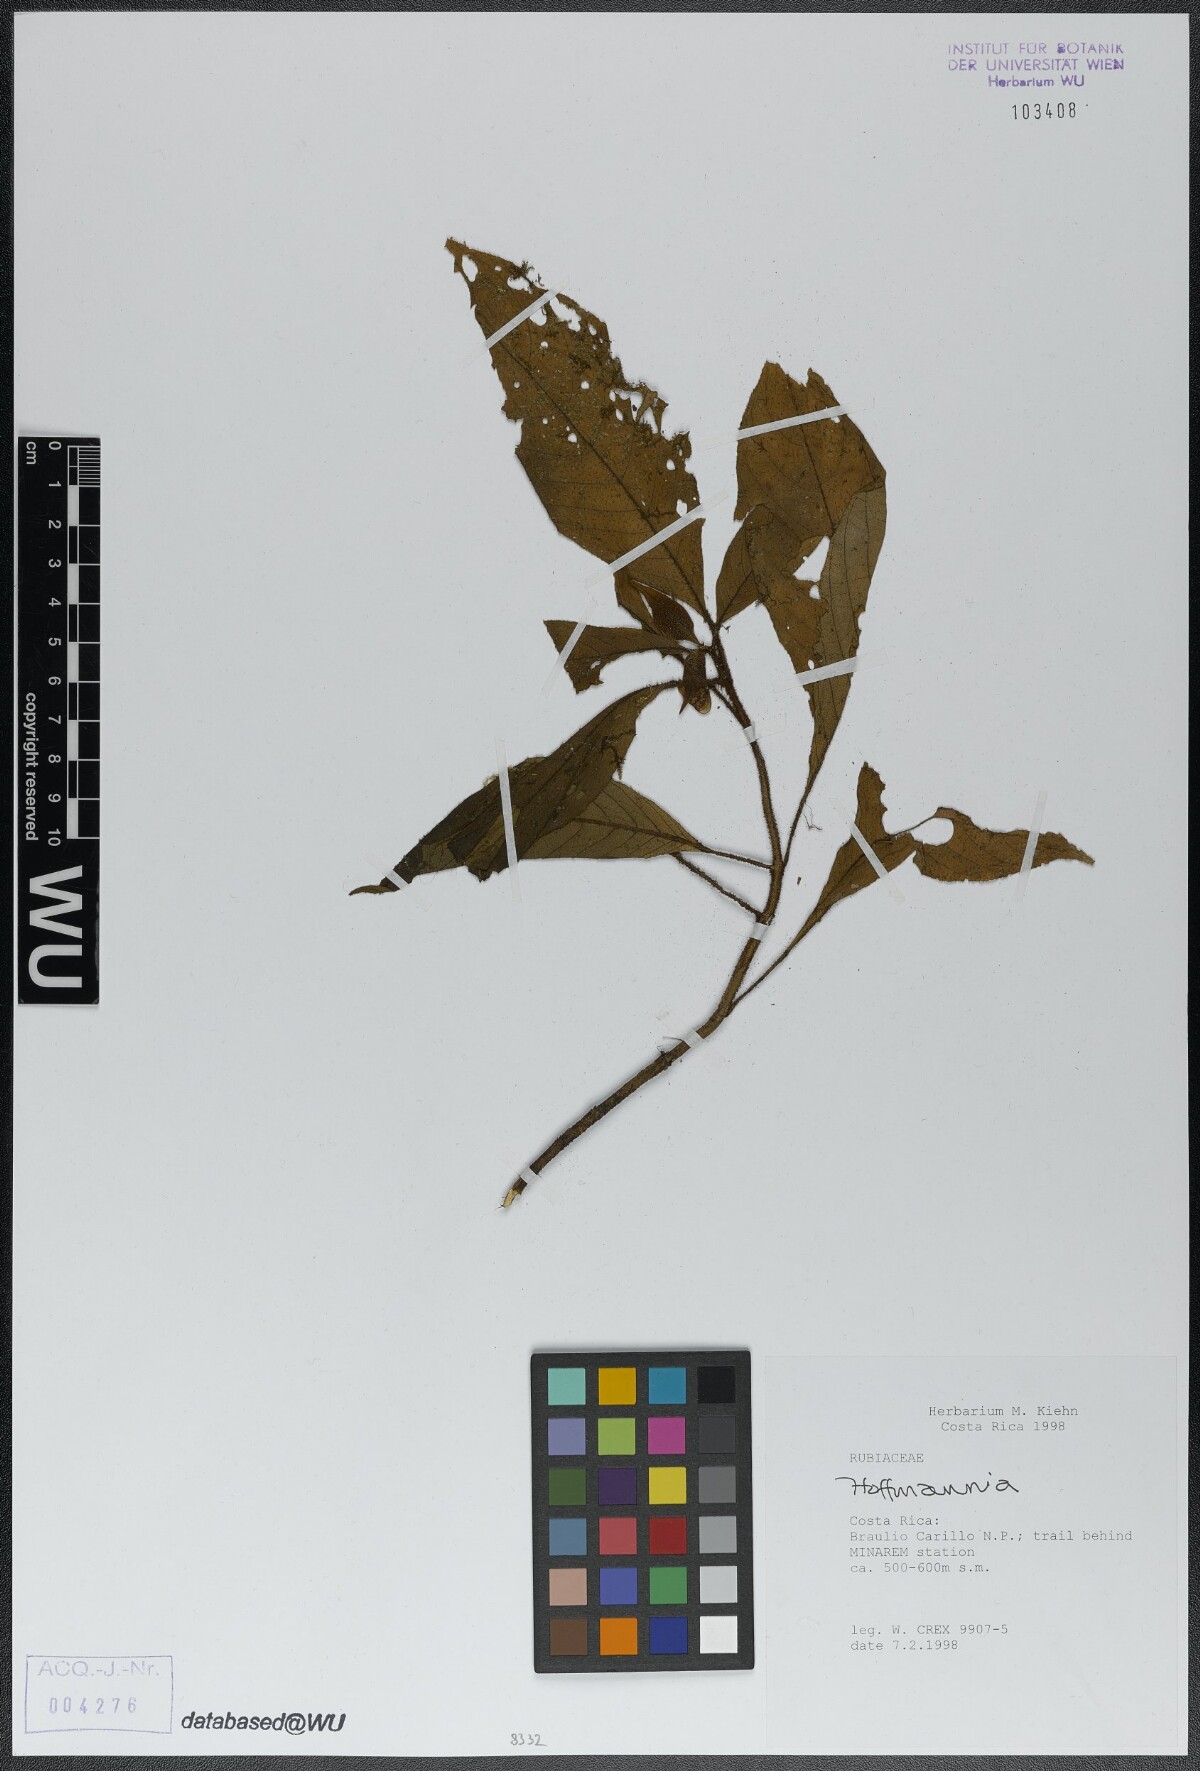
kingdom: Plantae
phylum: Tracheophyta
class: Magnoliopsida
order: Gentianales
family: Rubiaceae
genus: Hoffmannia
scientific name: Hoffmannia
